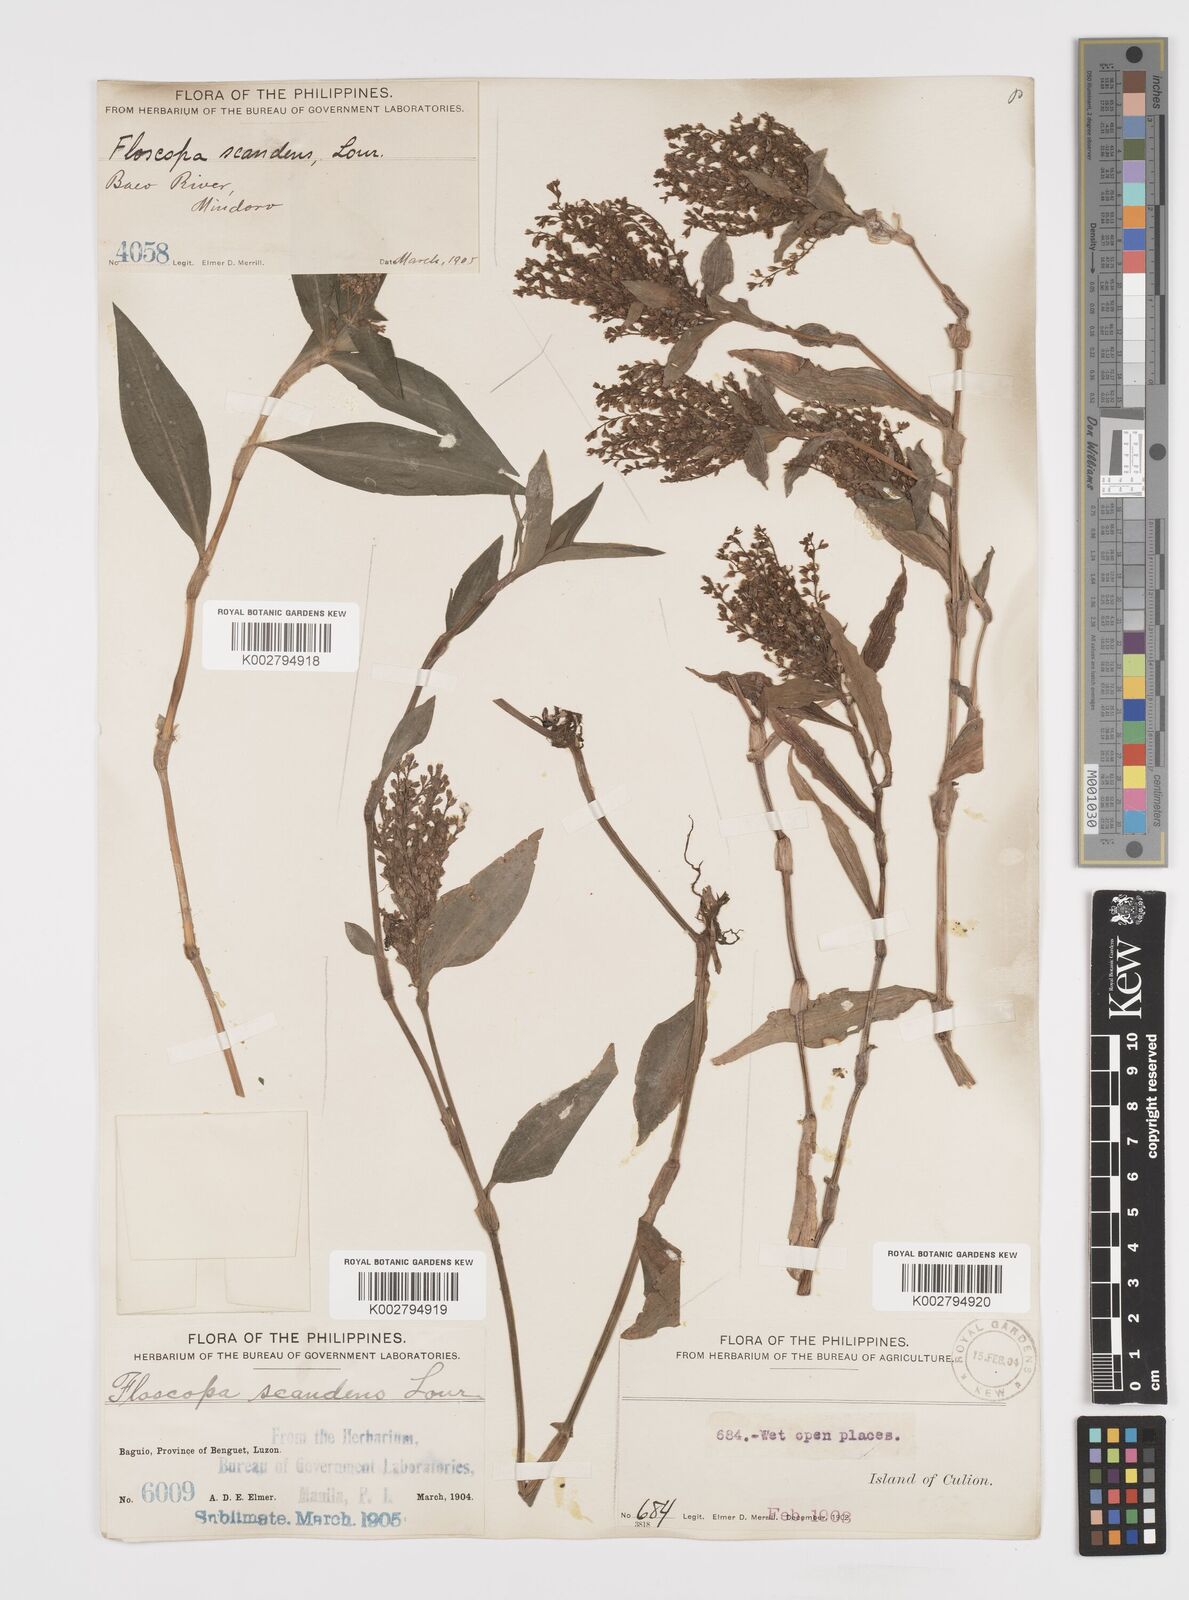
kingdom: Plantae
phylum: Tracheophyta
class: Liliopsida
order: Commelinales
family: Commelinaceae
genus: Floscopa
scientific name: Floscopa scandens
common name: Climbing flower cup
